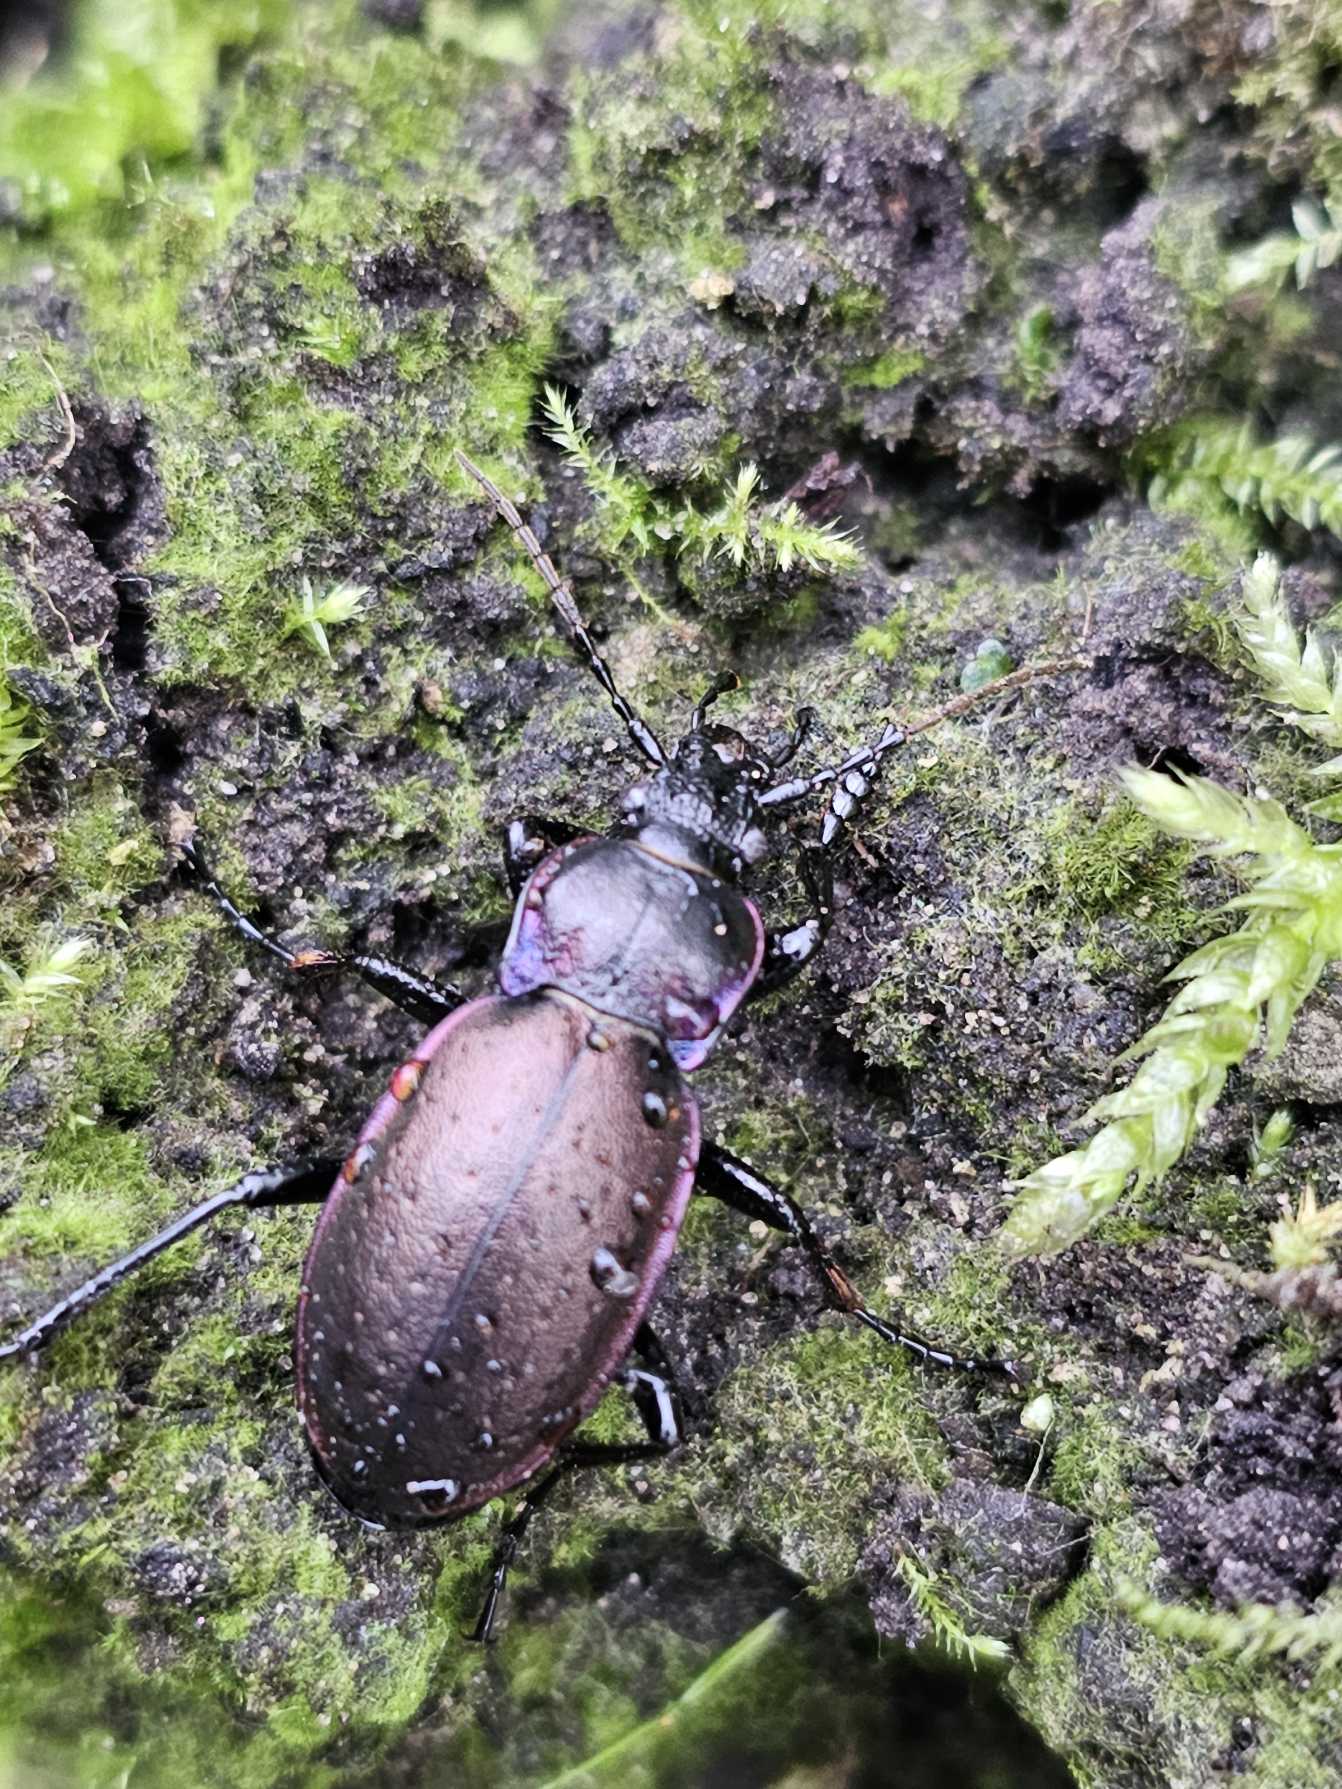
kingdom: Animalia
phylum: Arthropoda
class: Insecta
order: Coleoptera
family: Carabidae
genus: Carabus
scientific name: Carabus nemoralis
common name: Kratløber
